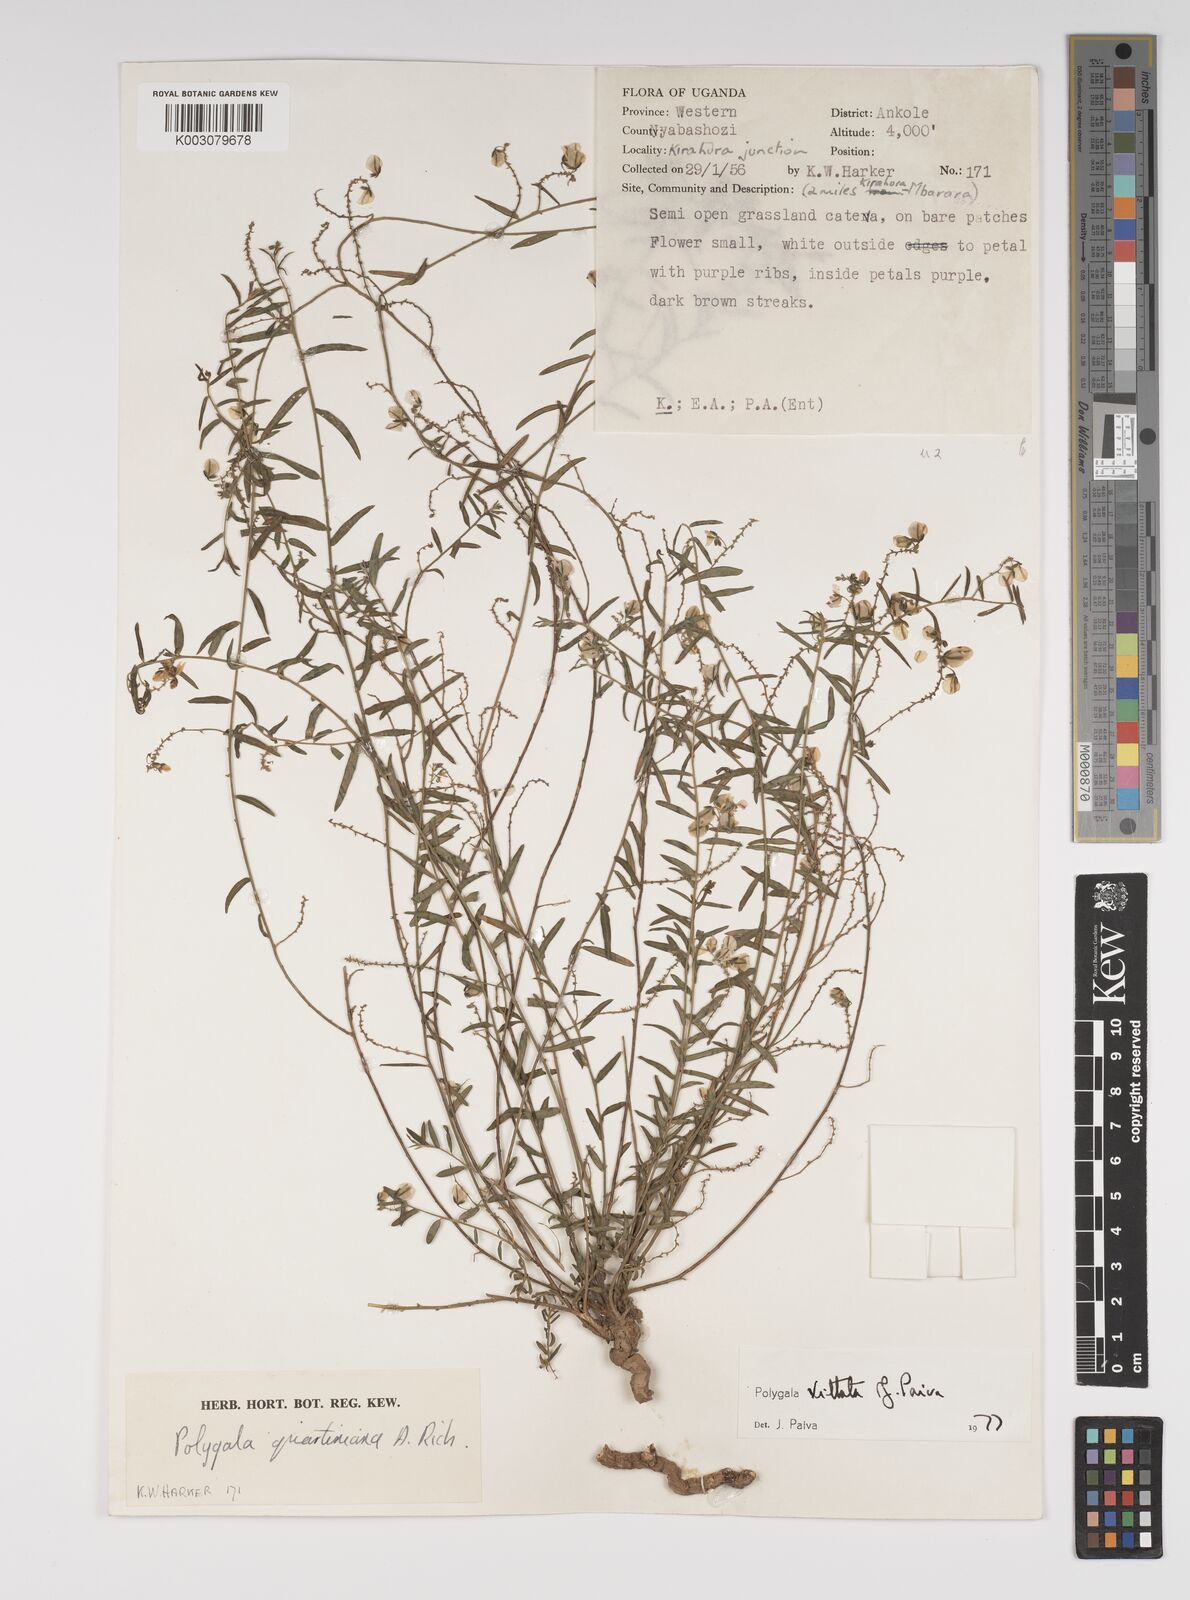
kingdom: Plantae
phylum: Tracheophyta
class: Magnoliopsida
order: Fabales
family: Polygalaceae
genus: Polygala
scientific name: Polygala vittata
